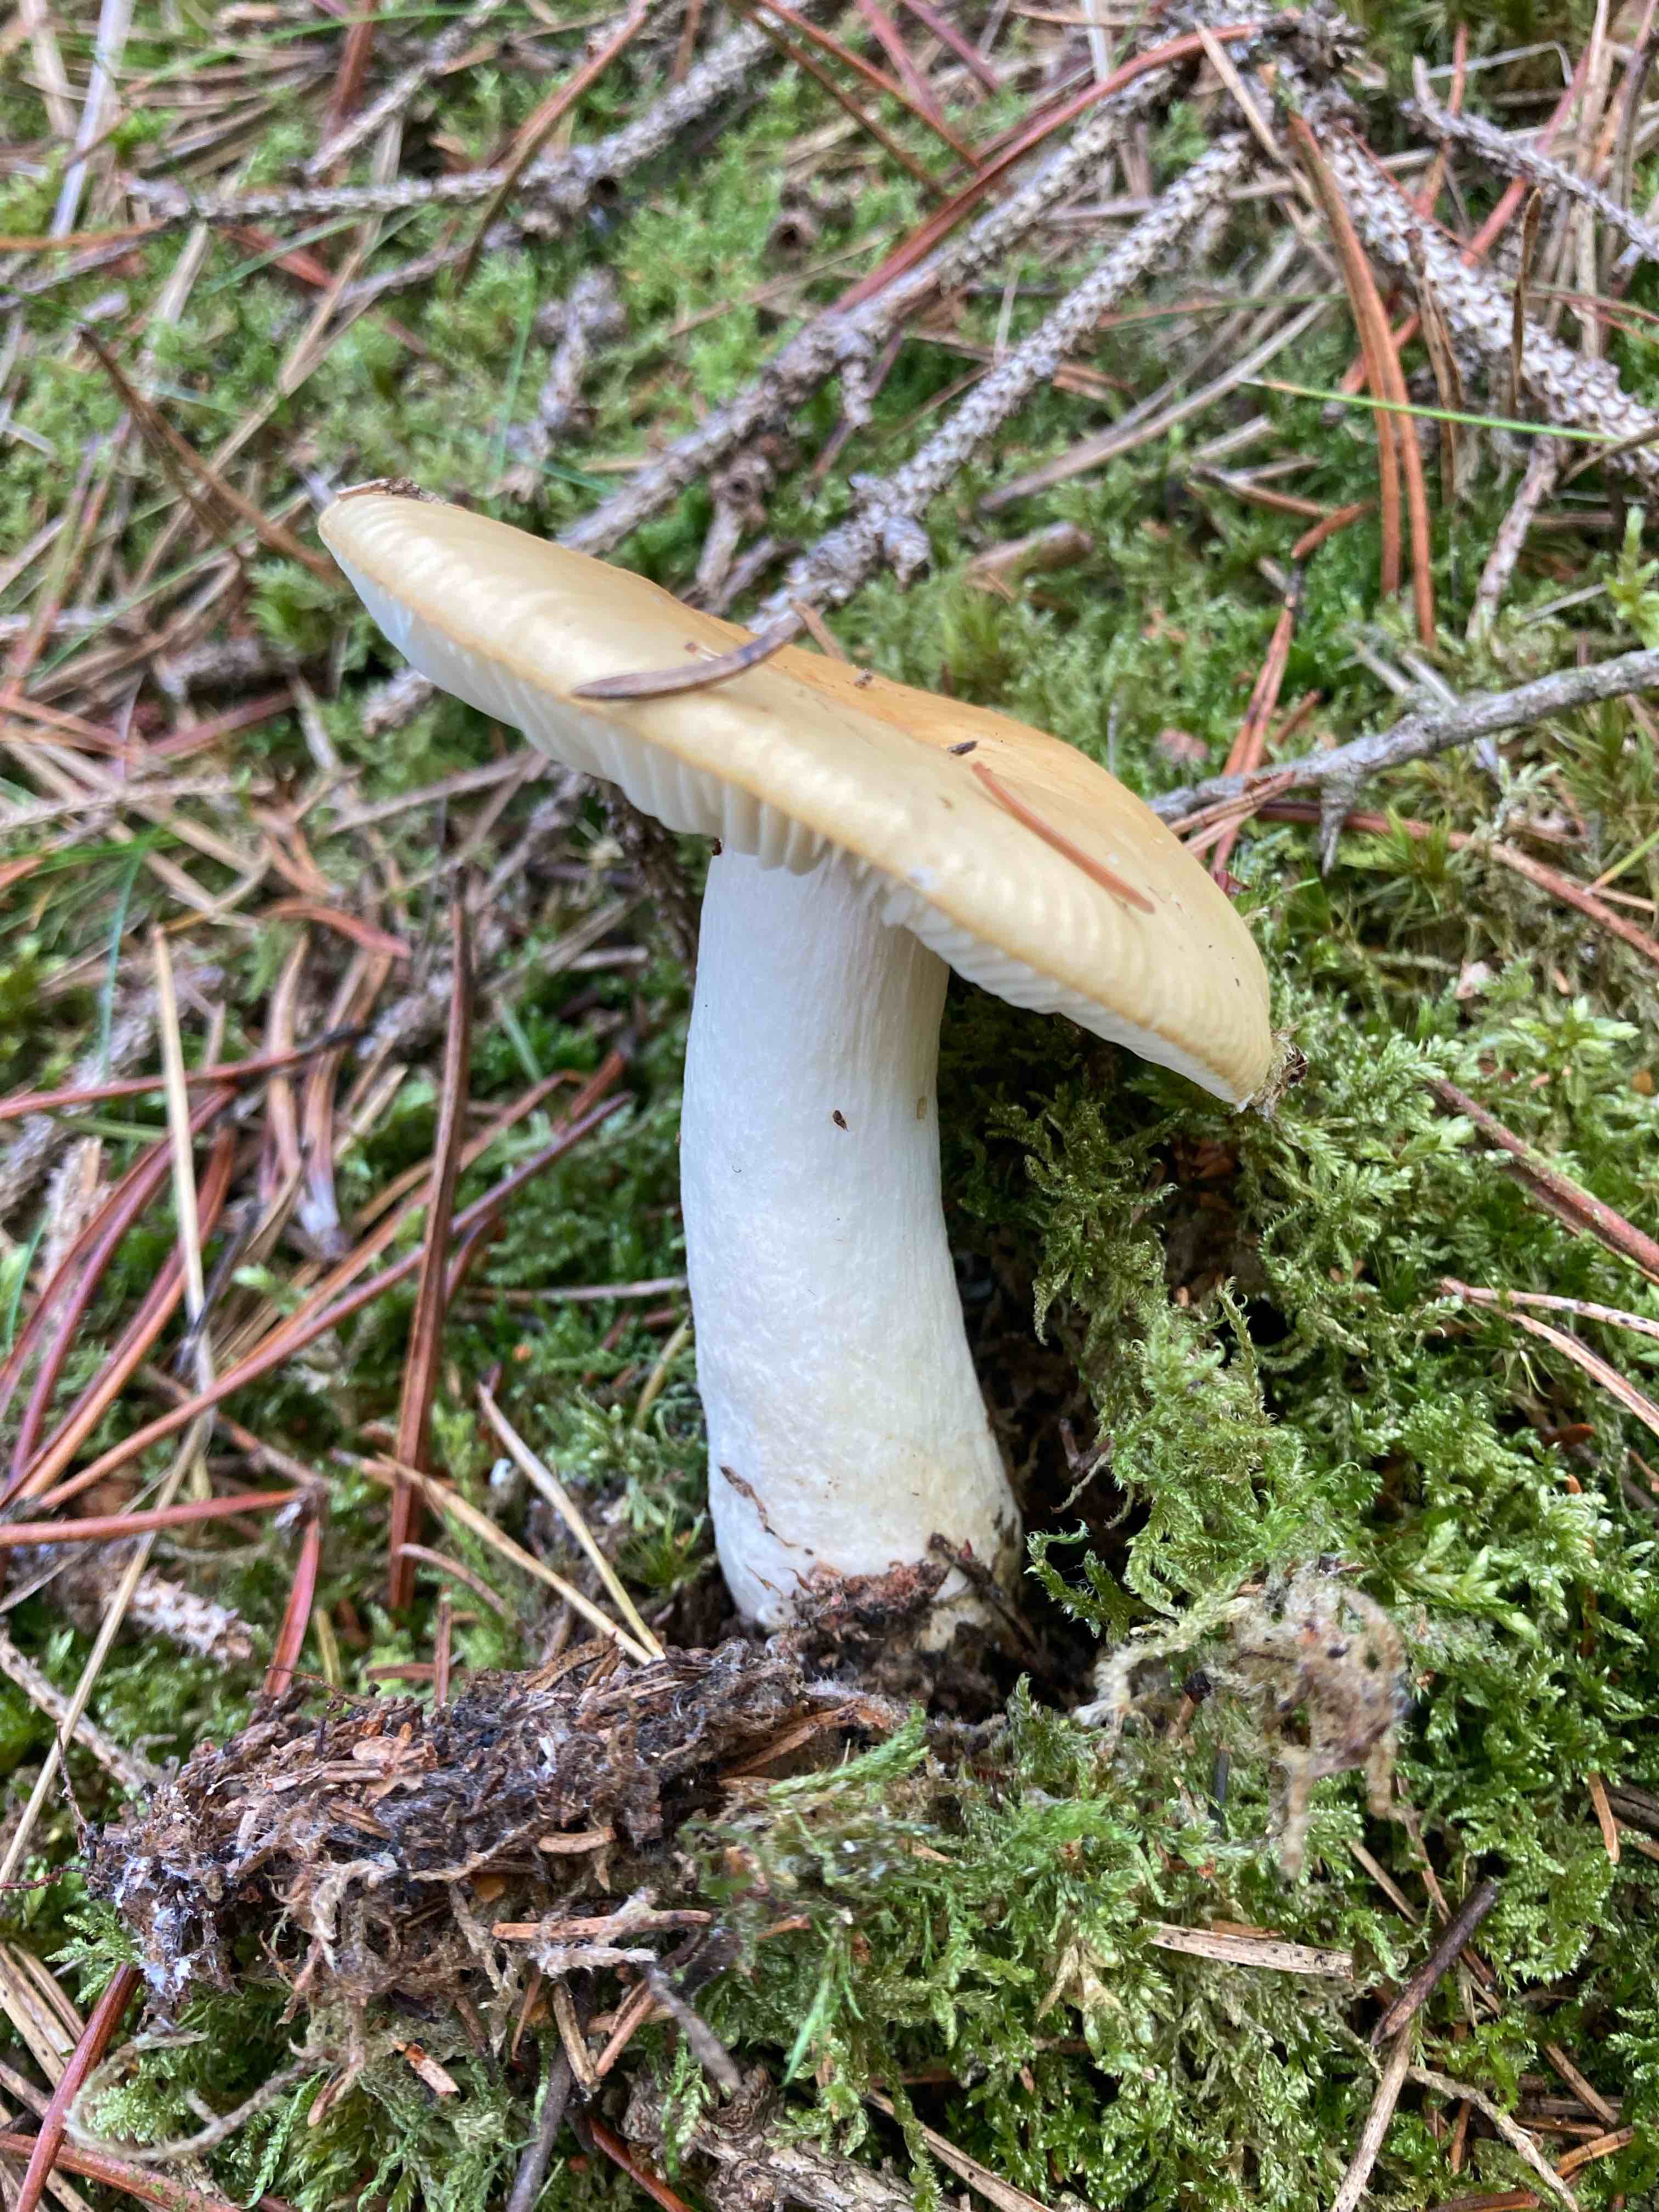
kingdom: Fungi
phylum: Basidiomycota
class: Agaricomycetes
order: Russulales
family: Russulaceae
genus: Russula
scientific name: Russula ochroleuca
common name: okkergul skørhat
